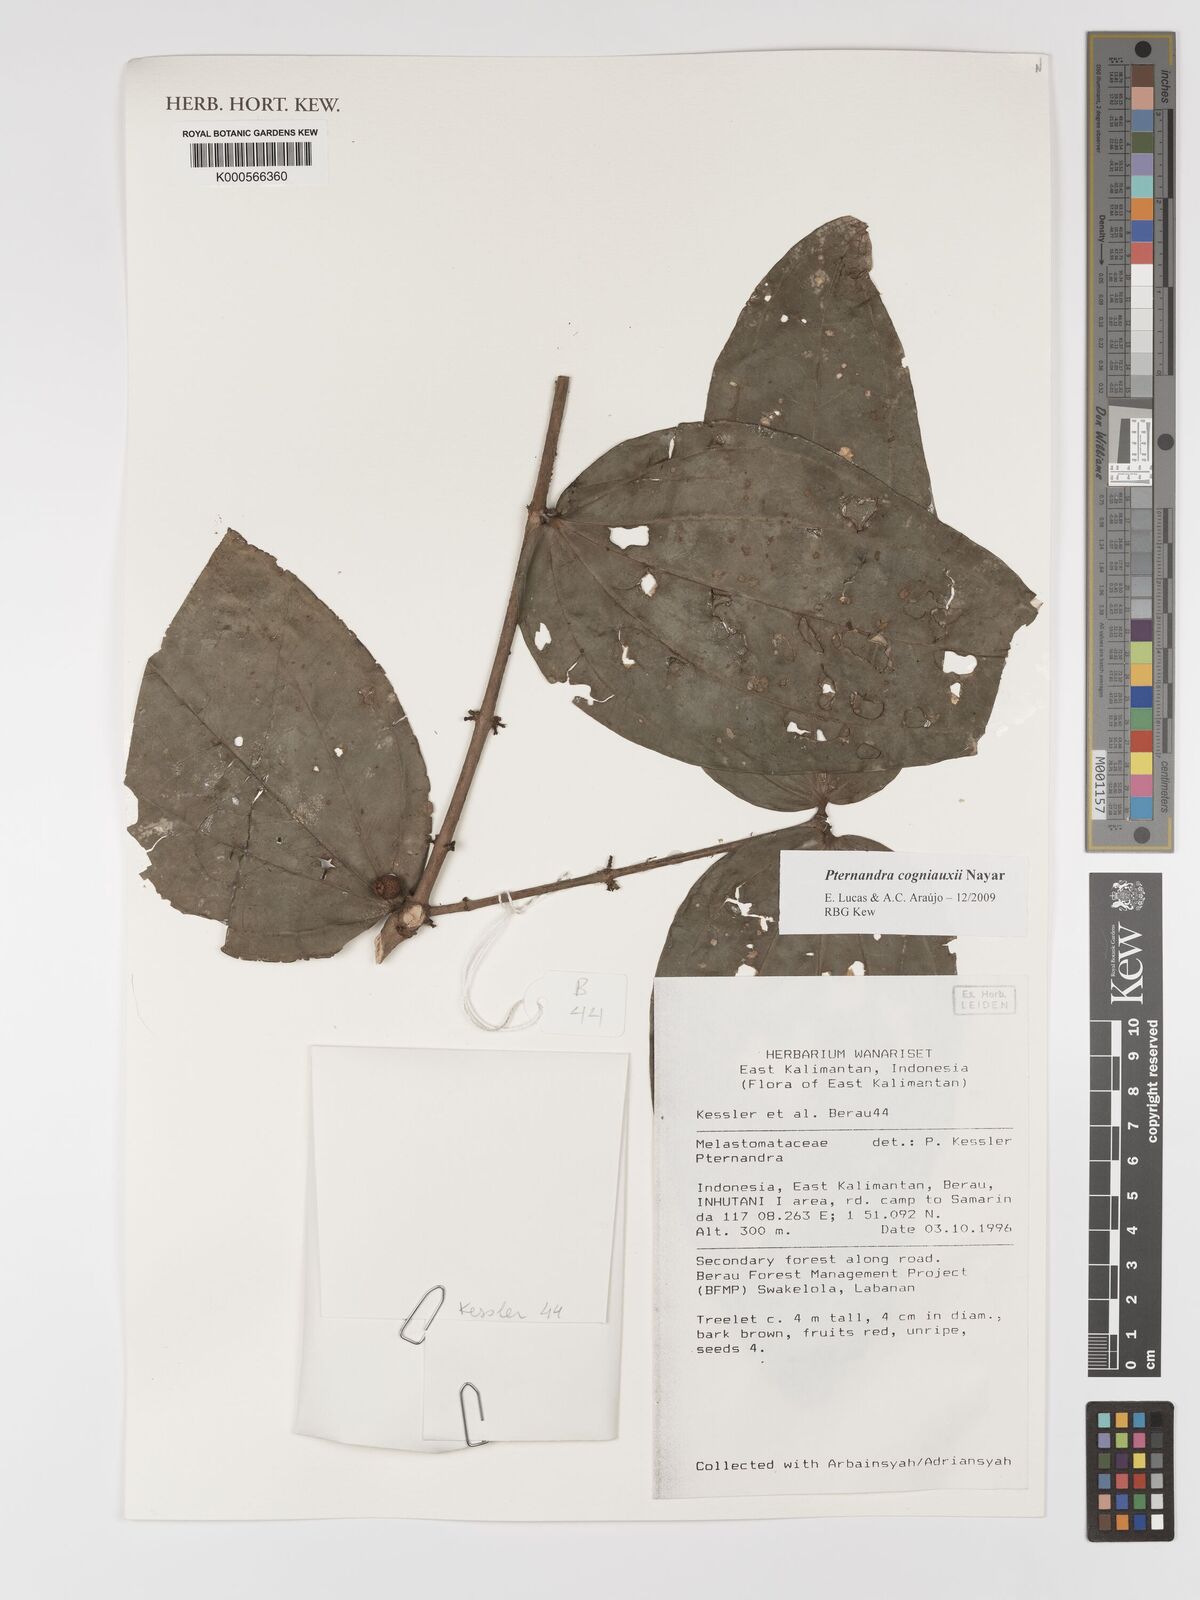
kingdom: Plantae
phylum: Tracheophyta
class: Magnoliopsida
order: Myrtales
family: Melastomataceae
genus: Pternandra
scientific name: Pternandra cogniauxii
